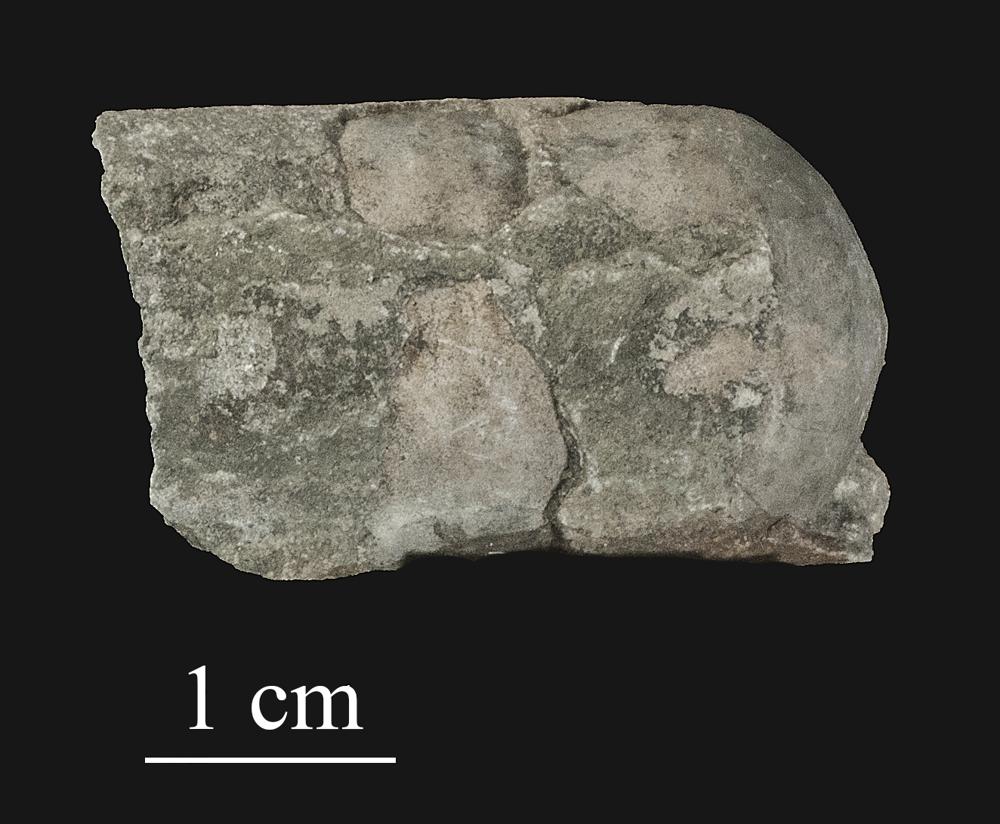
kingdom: Animalia
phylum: Mollusca
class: Cephalopoda
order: Orthocerida
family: Orthoceratidae
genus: Orthoceras
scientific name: Orthoceras
